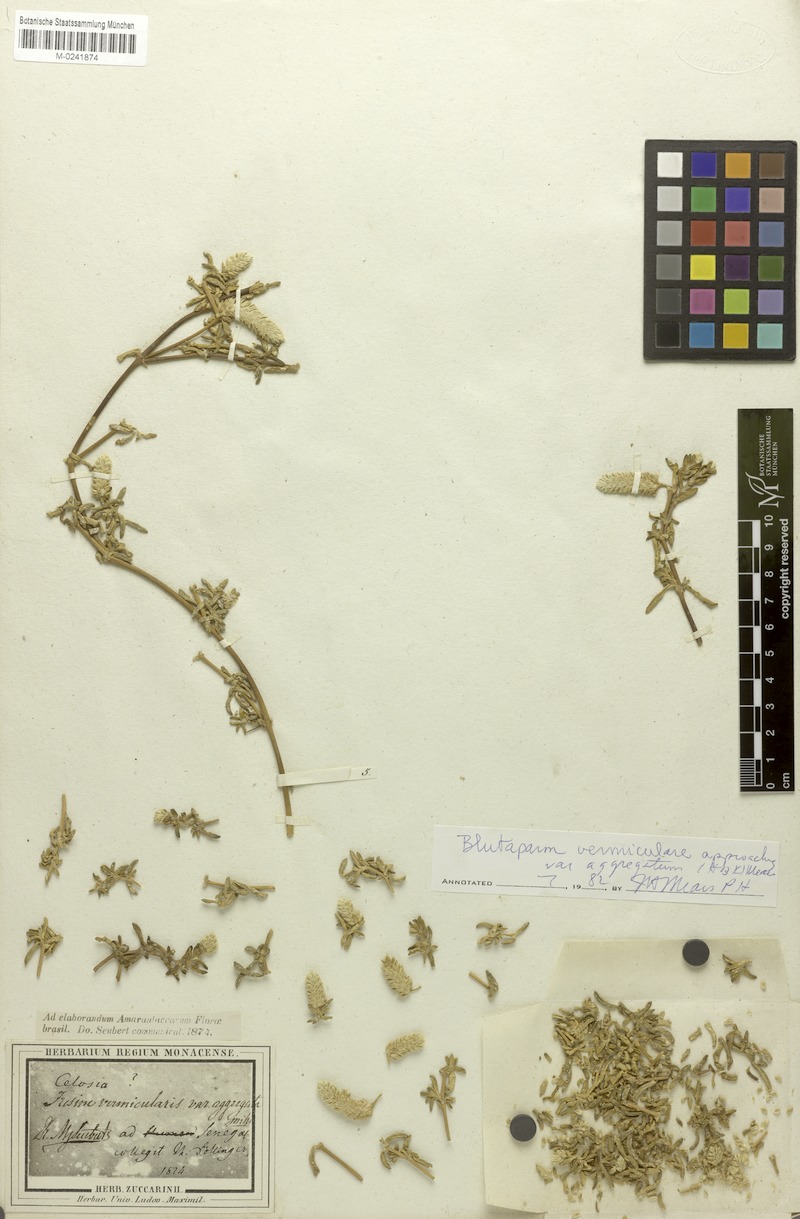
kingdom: Plantae
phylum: Tracheophyta
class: Magnoliopsida
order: Caryophyllales
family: Amaranthaceae
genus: Gomphrena
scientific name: Gomphrena vermicularis
